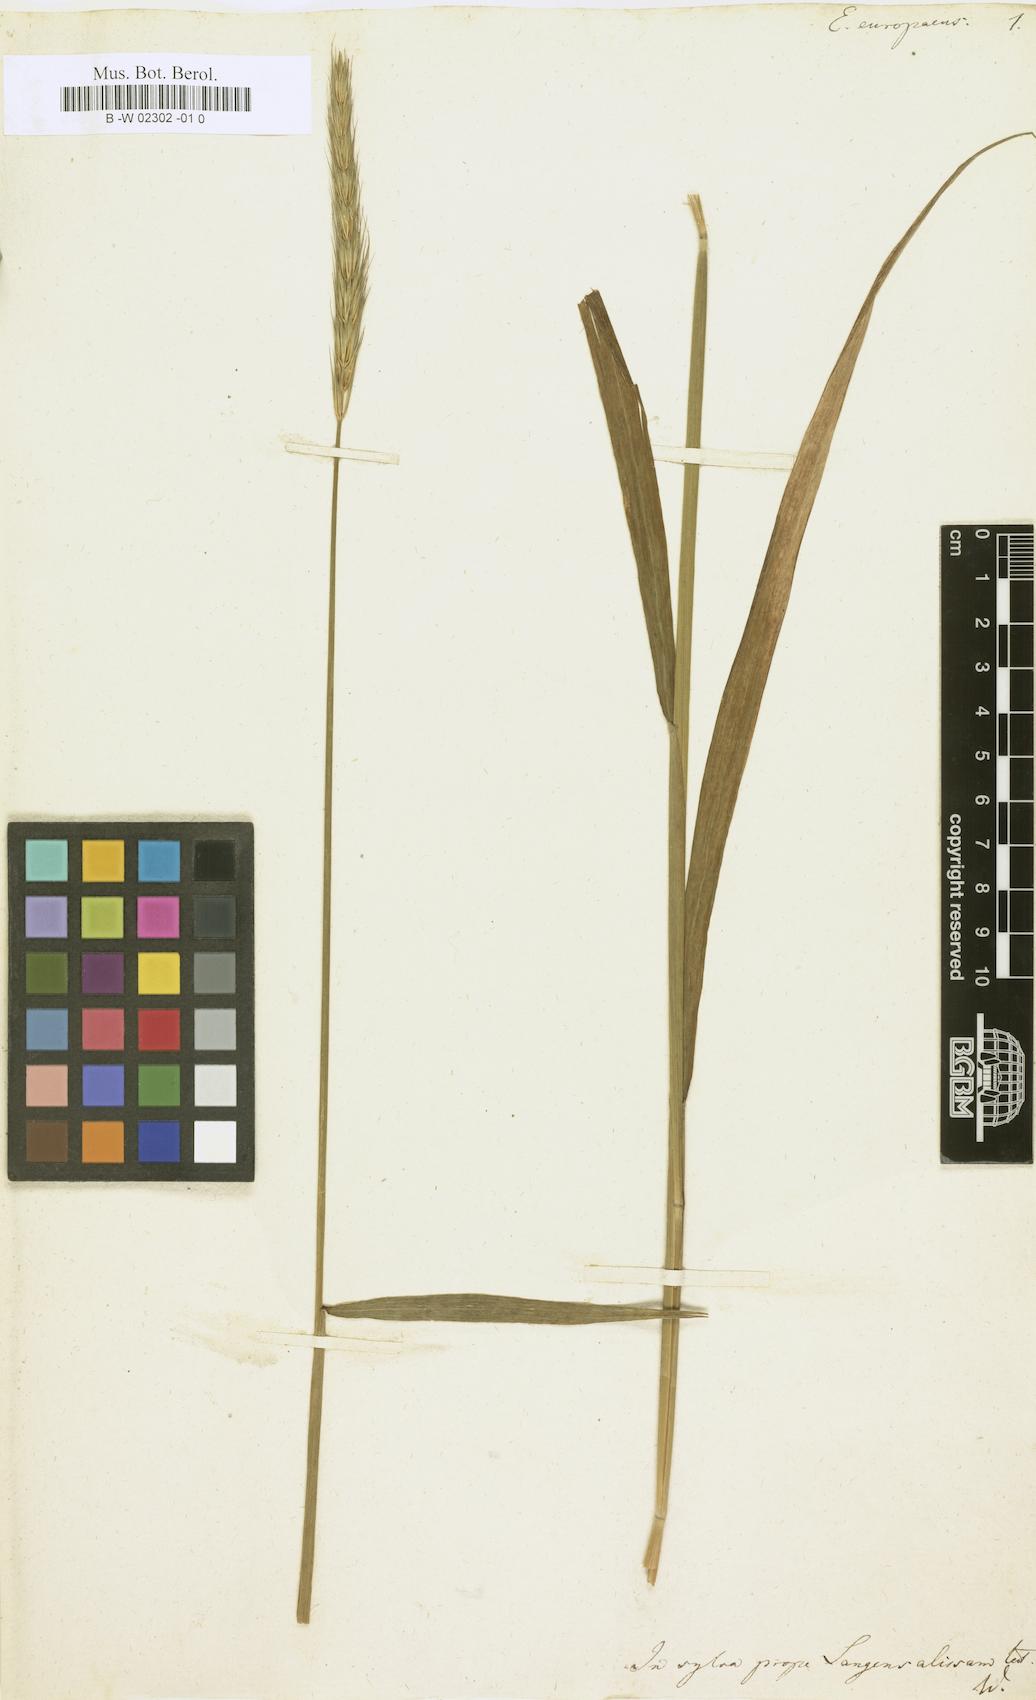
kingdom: Plantae
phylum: Tracheophyta
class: Liliopsida
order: Poales
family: Poaceae
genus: Elymus
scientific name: Elymus europaeus
